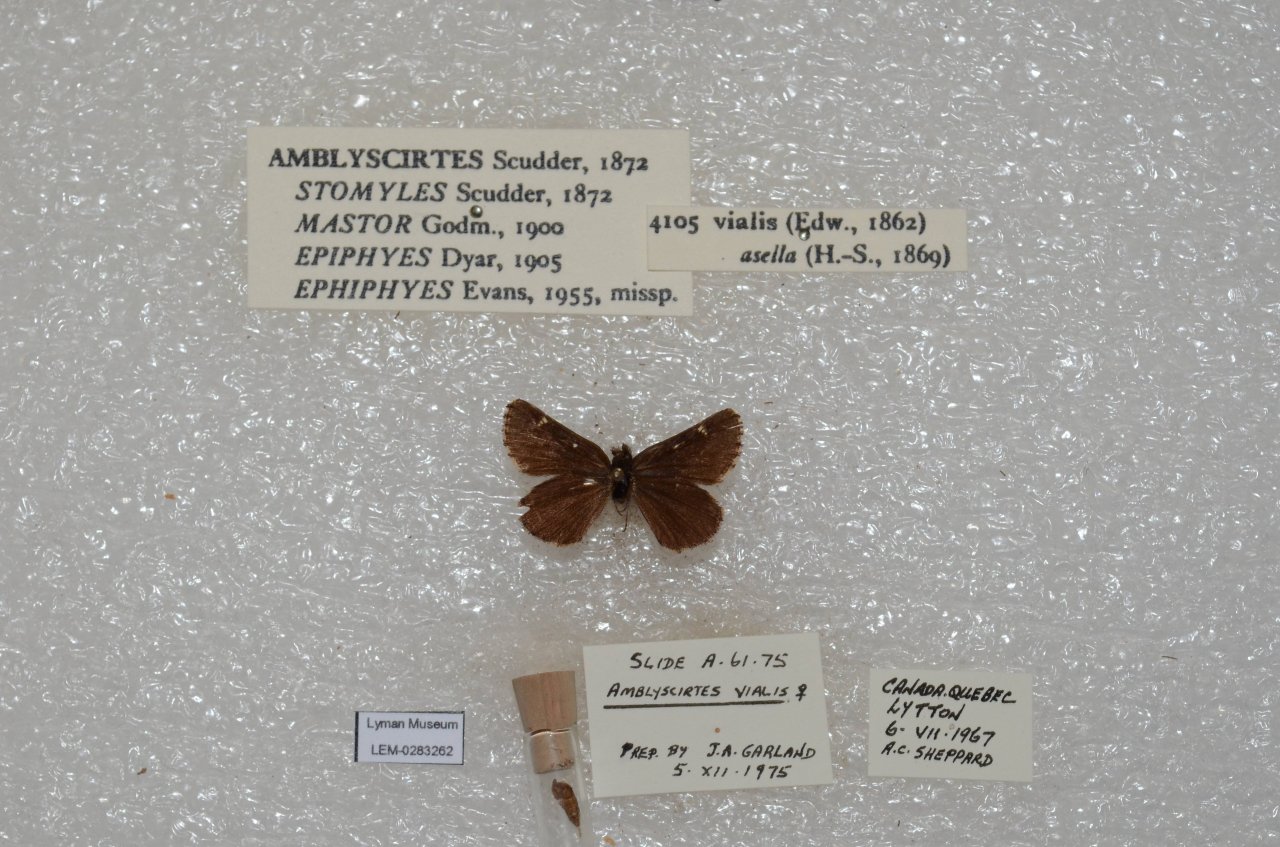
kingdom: Animalia
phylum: Arthropoda
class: Insecta
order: Lepidoptera
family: Hesperiidae
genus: Mastor
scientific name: Mastor vialis
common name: Common Roadside-Skipper
